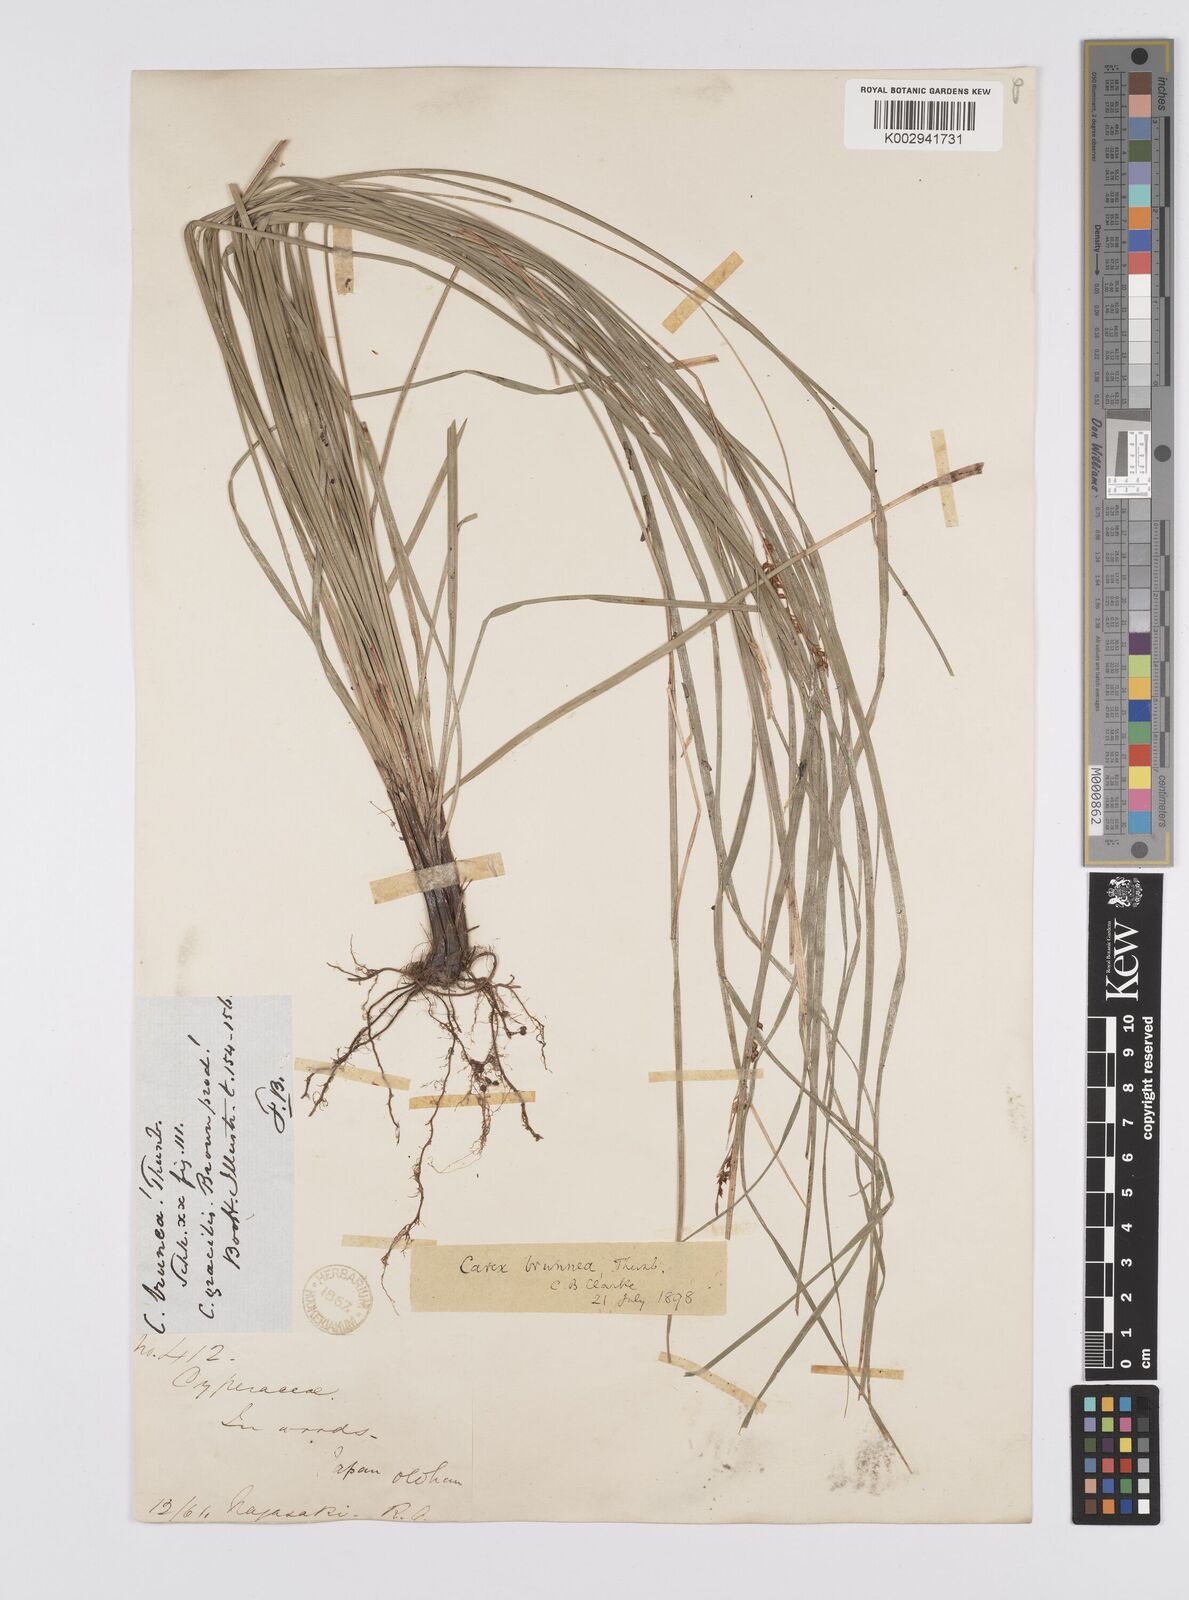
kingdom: Plantae
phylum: Tracheophyta
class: Liliopsida
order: Poales
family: Cyperaceae
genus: Carex
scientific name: Carex brunnea
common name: Greater brown sedge
